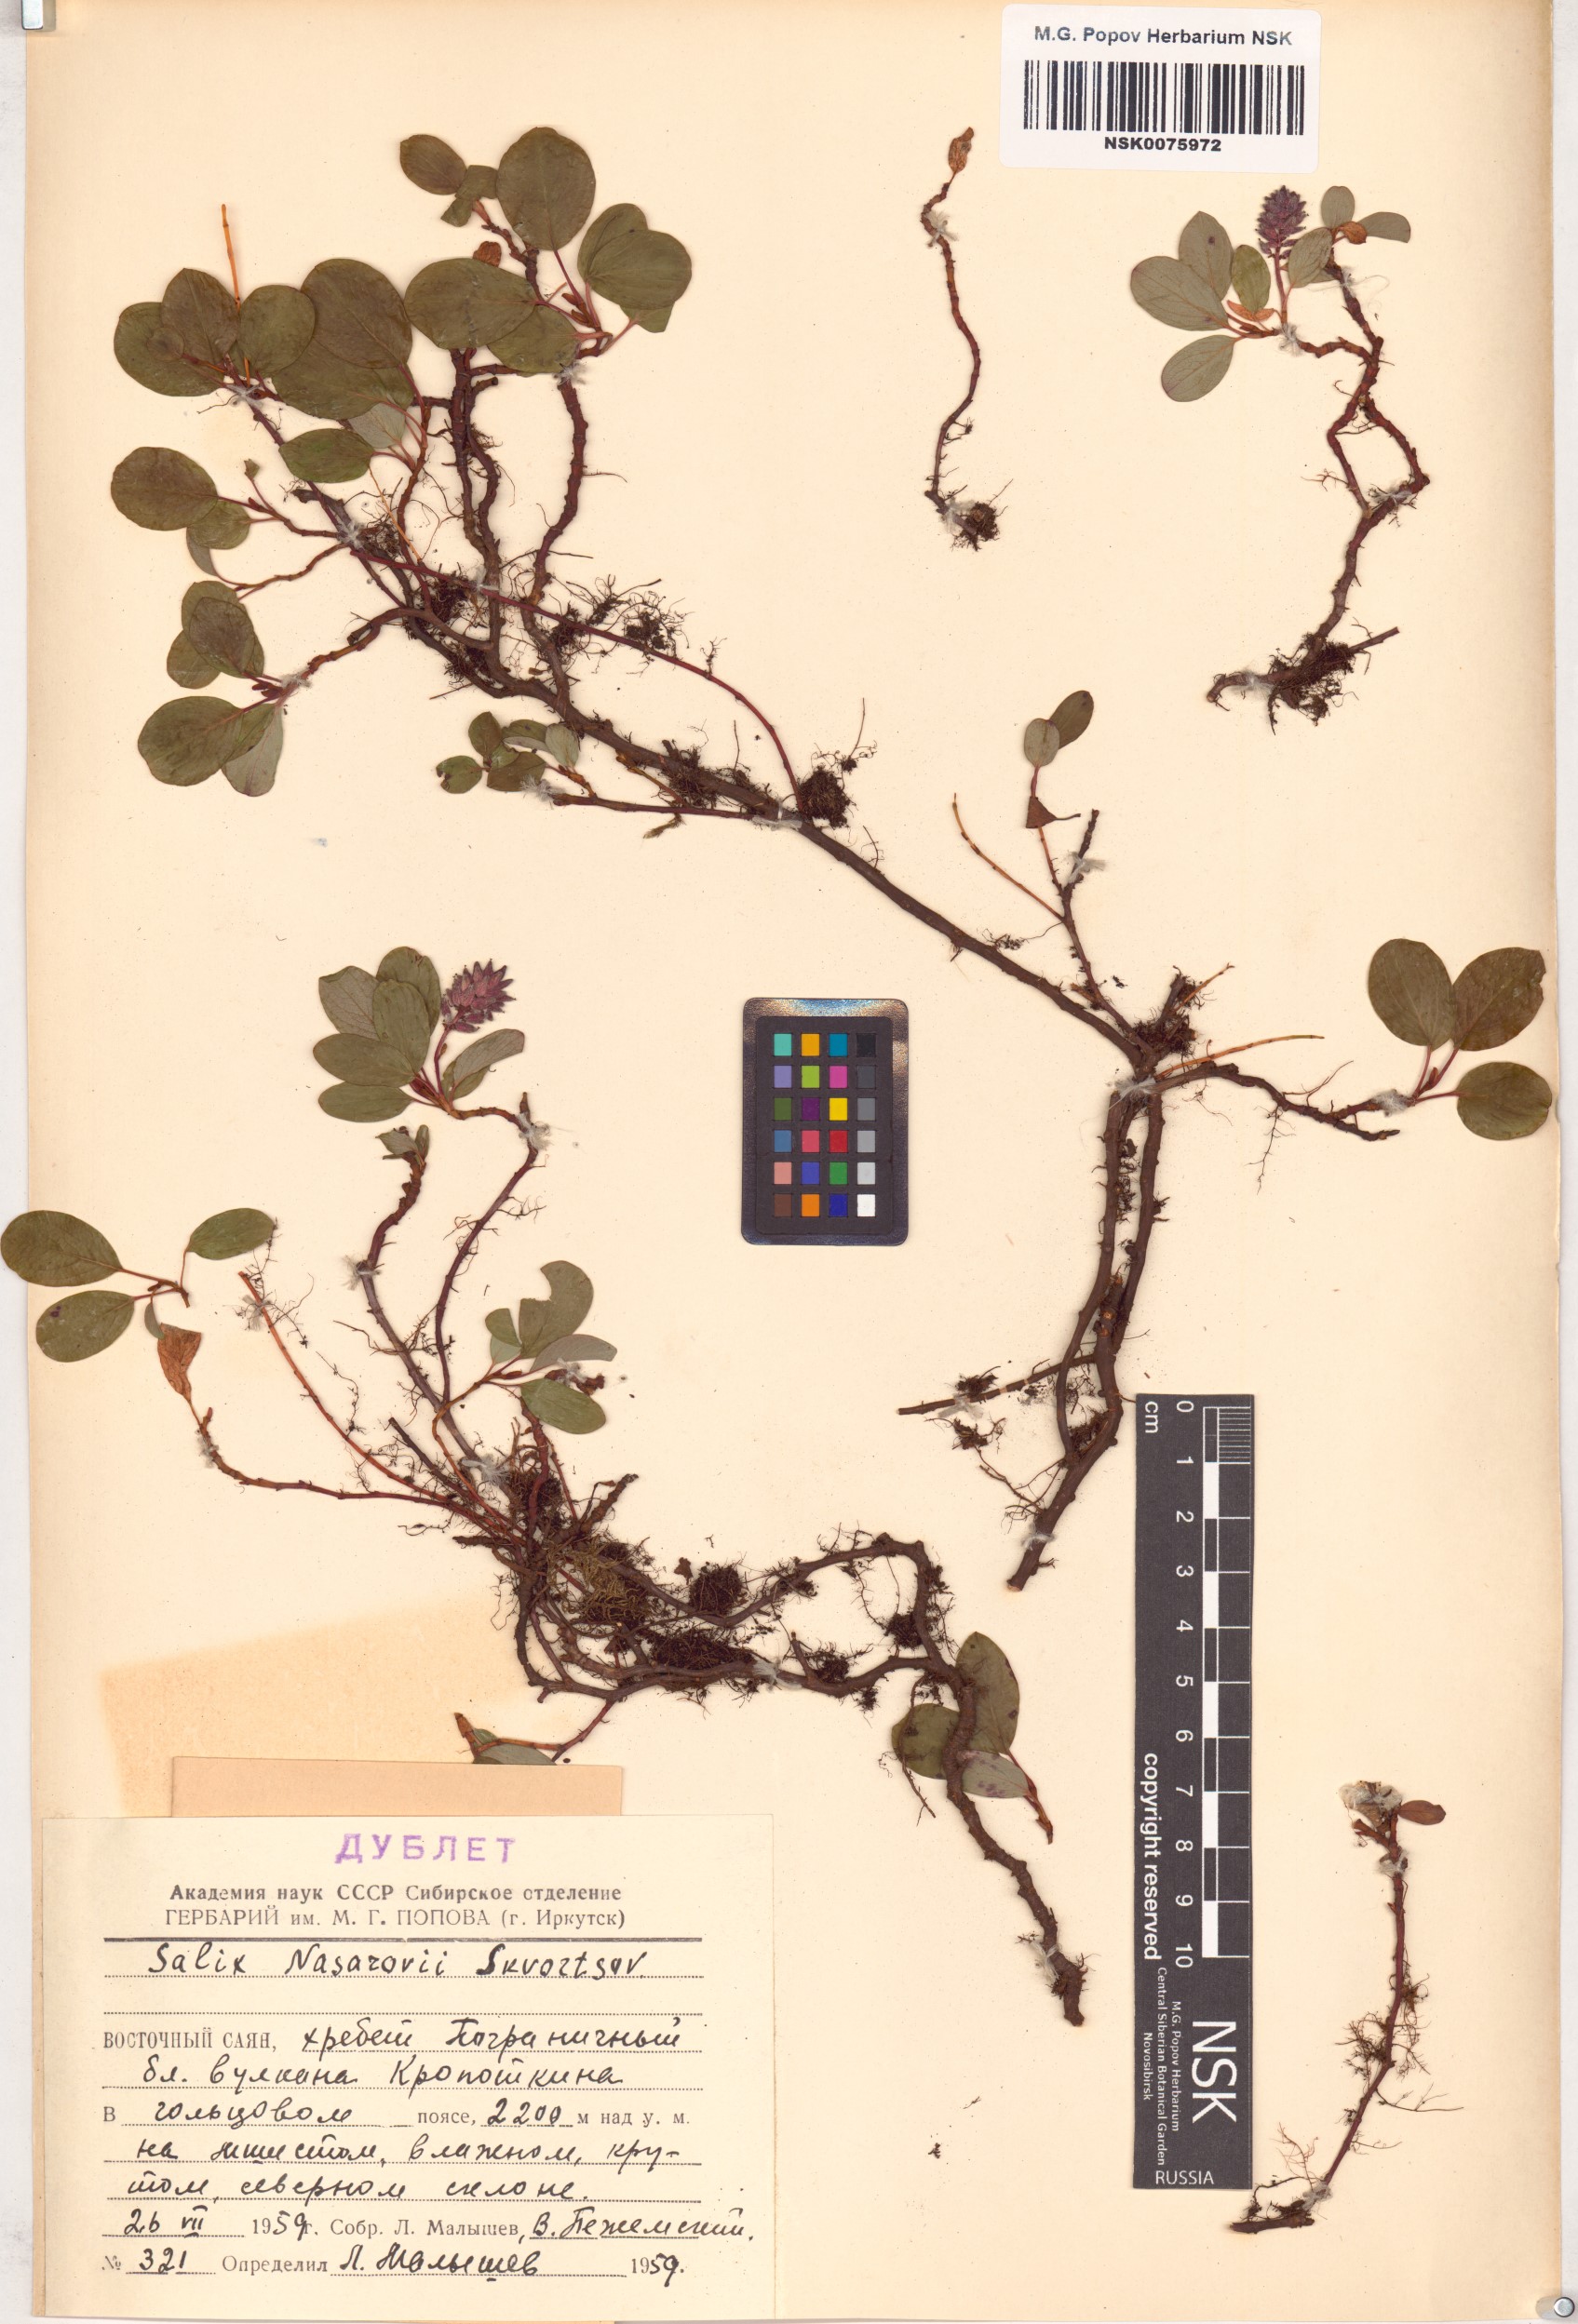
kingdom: Plantae
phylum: Tracheophyta
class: Magnoliopsida
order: Malpighiales
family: Salicaceae
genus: Salix
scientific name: Salix nasarovii
